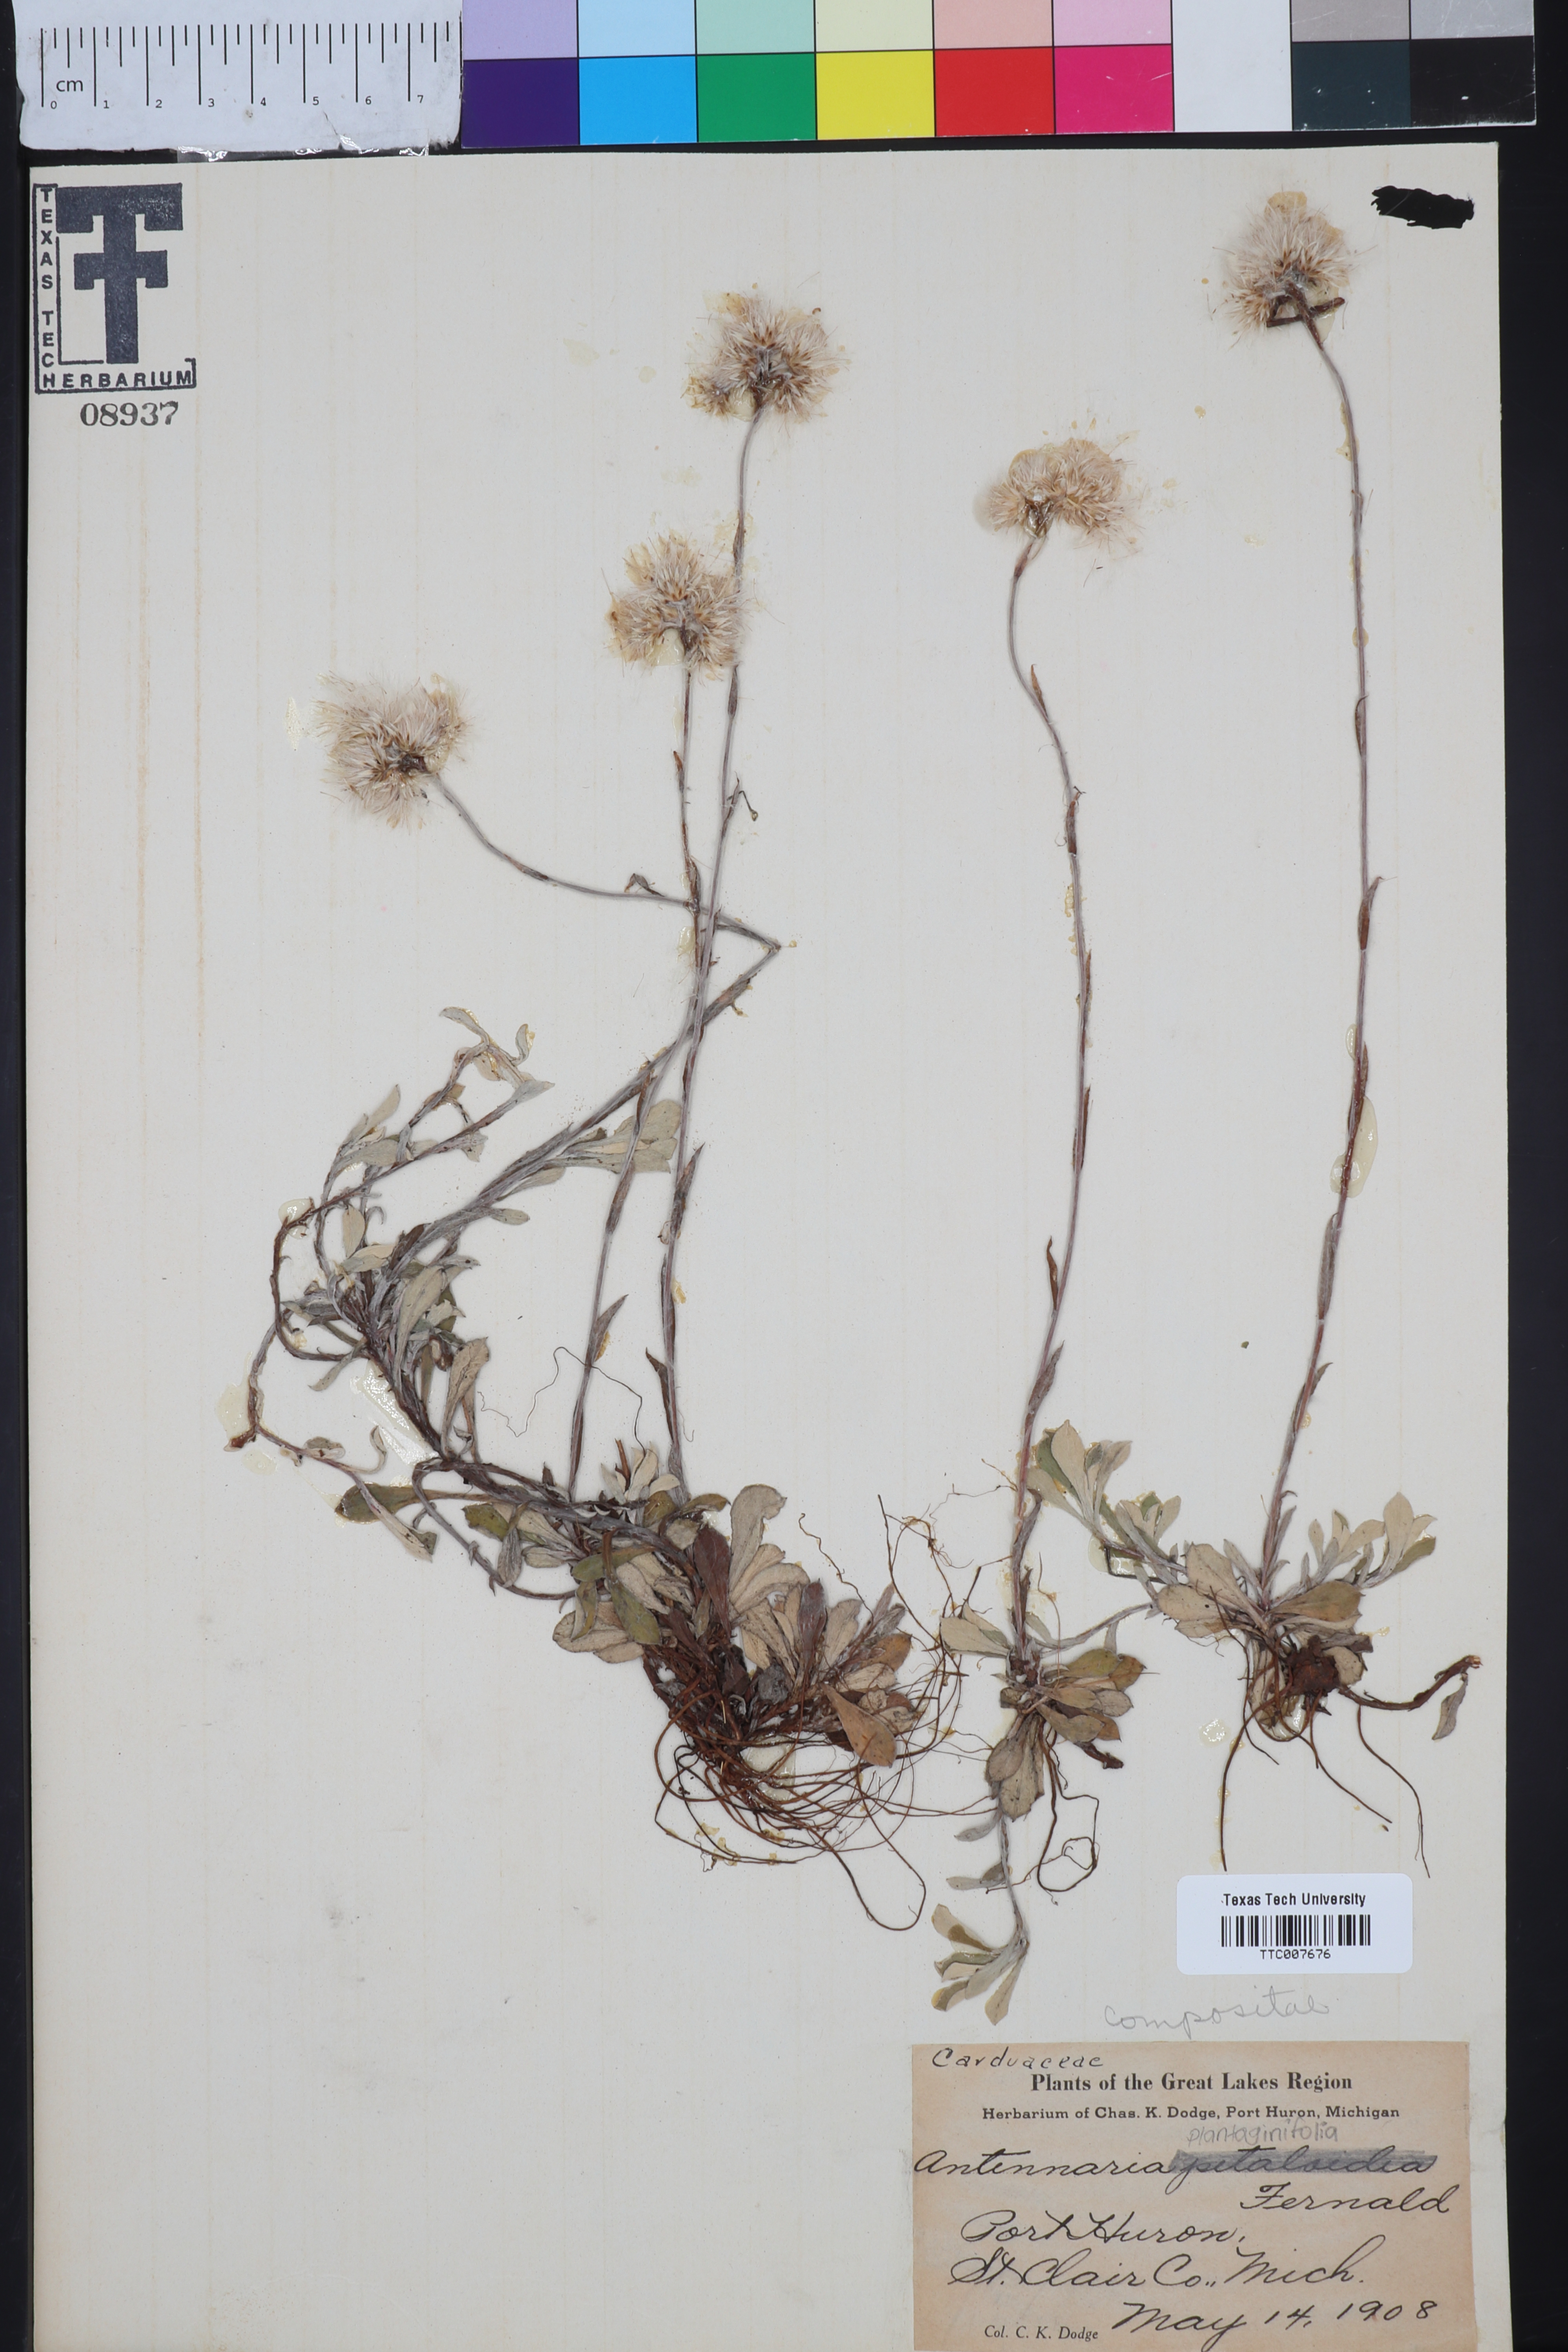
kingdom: Plantae
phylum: Tracheophyta
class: Magnoliopsida
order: Asterales
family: Asteraceae
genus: Antennaria
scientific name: Antennaria howellii
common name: Howell's pussytoes
